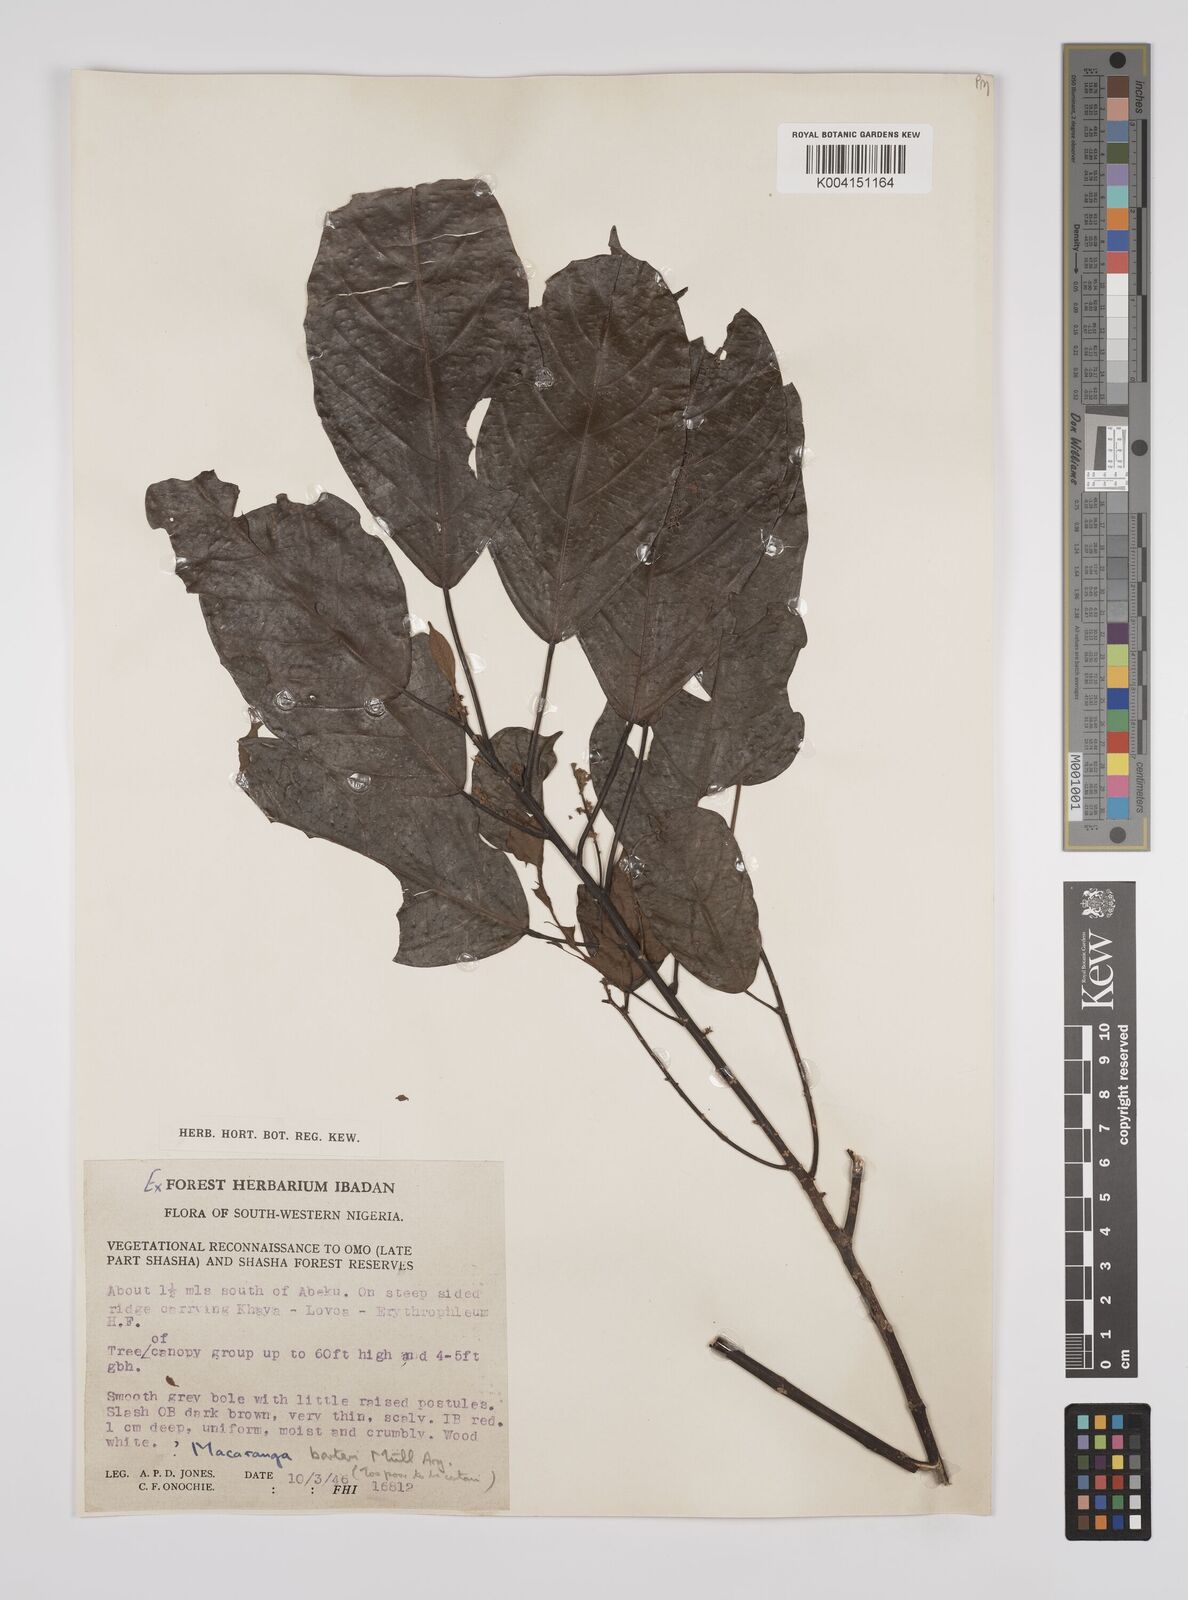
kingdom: Plantae
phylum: Tracheophyta
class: Magnoliopsida
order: Malpighiales
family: Euphorbiaceae
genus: Macaranga
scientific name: Macaranga barteri
